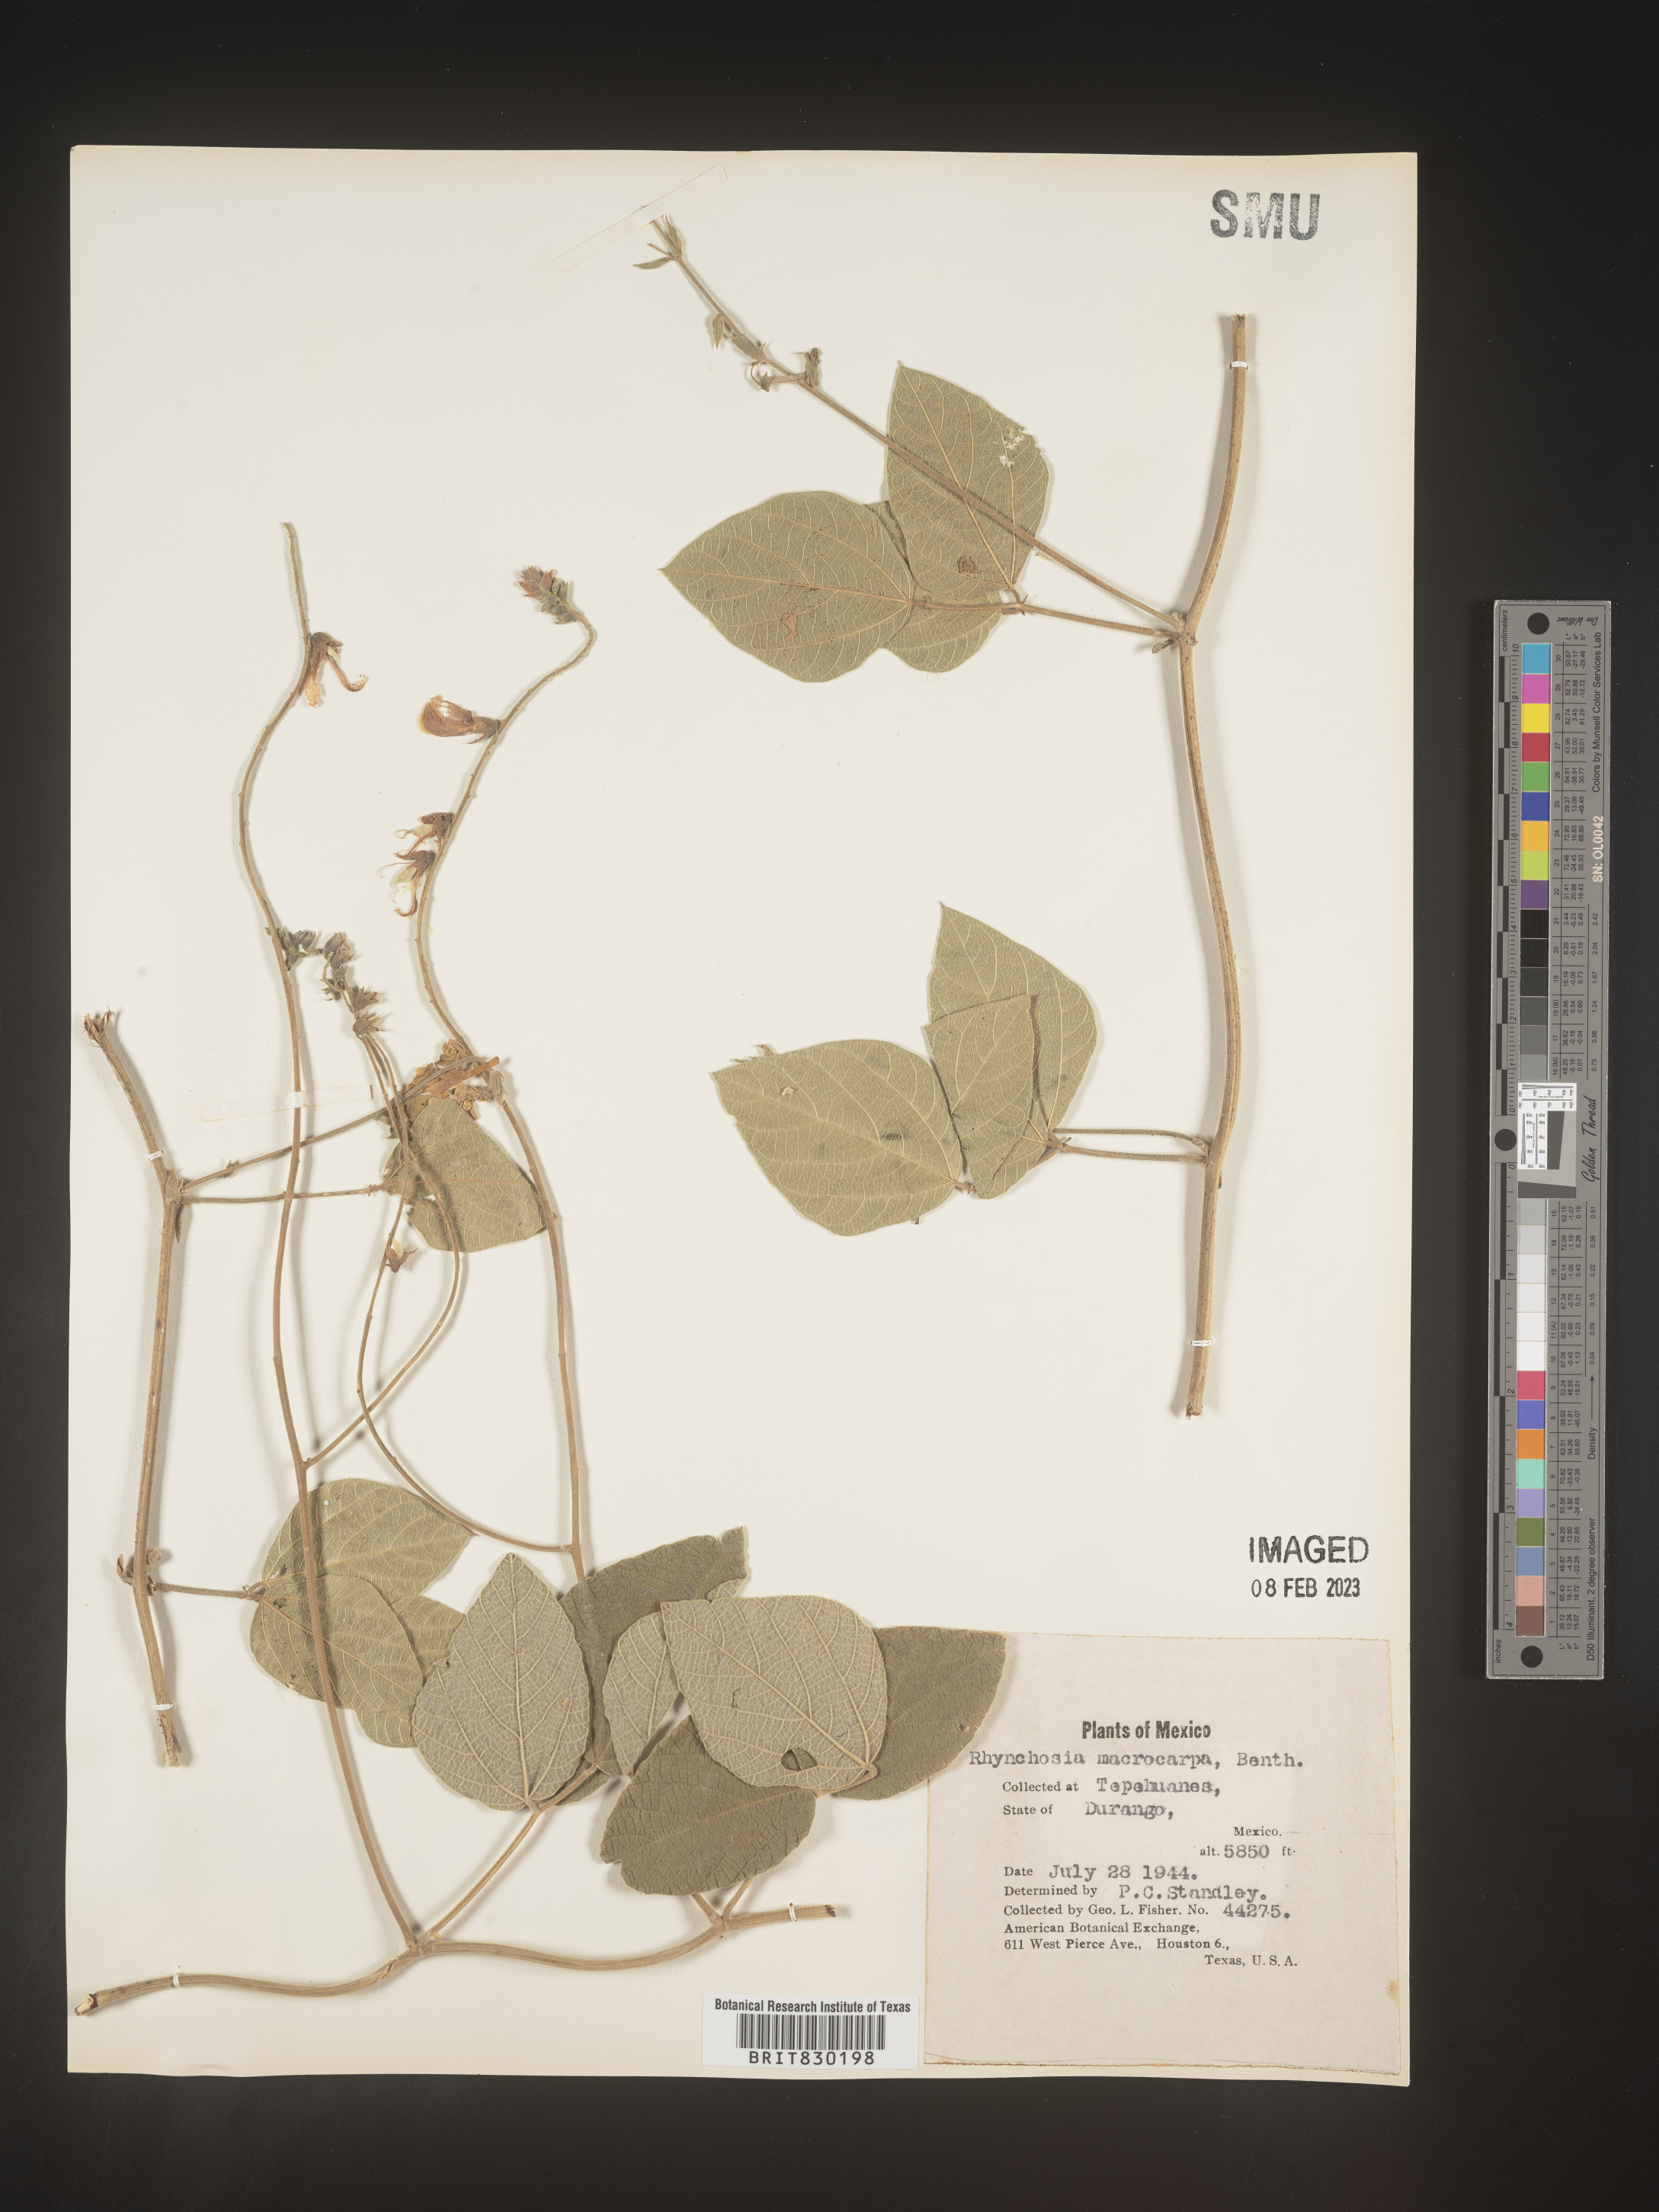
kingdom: Plantae
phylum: Tracheophyta
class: Magnoliopsida
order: Fabales
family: Fabaceae
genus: Rhynchosia
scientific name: Rhynchosia
